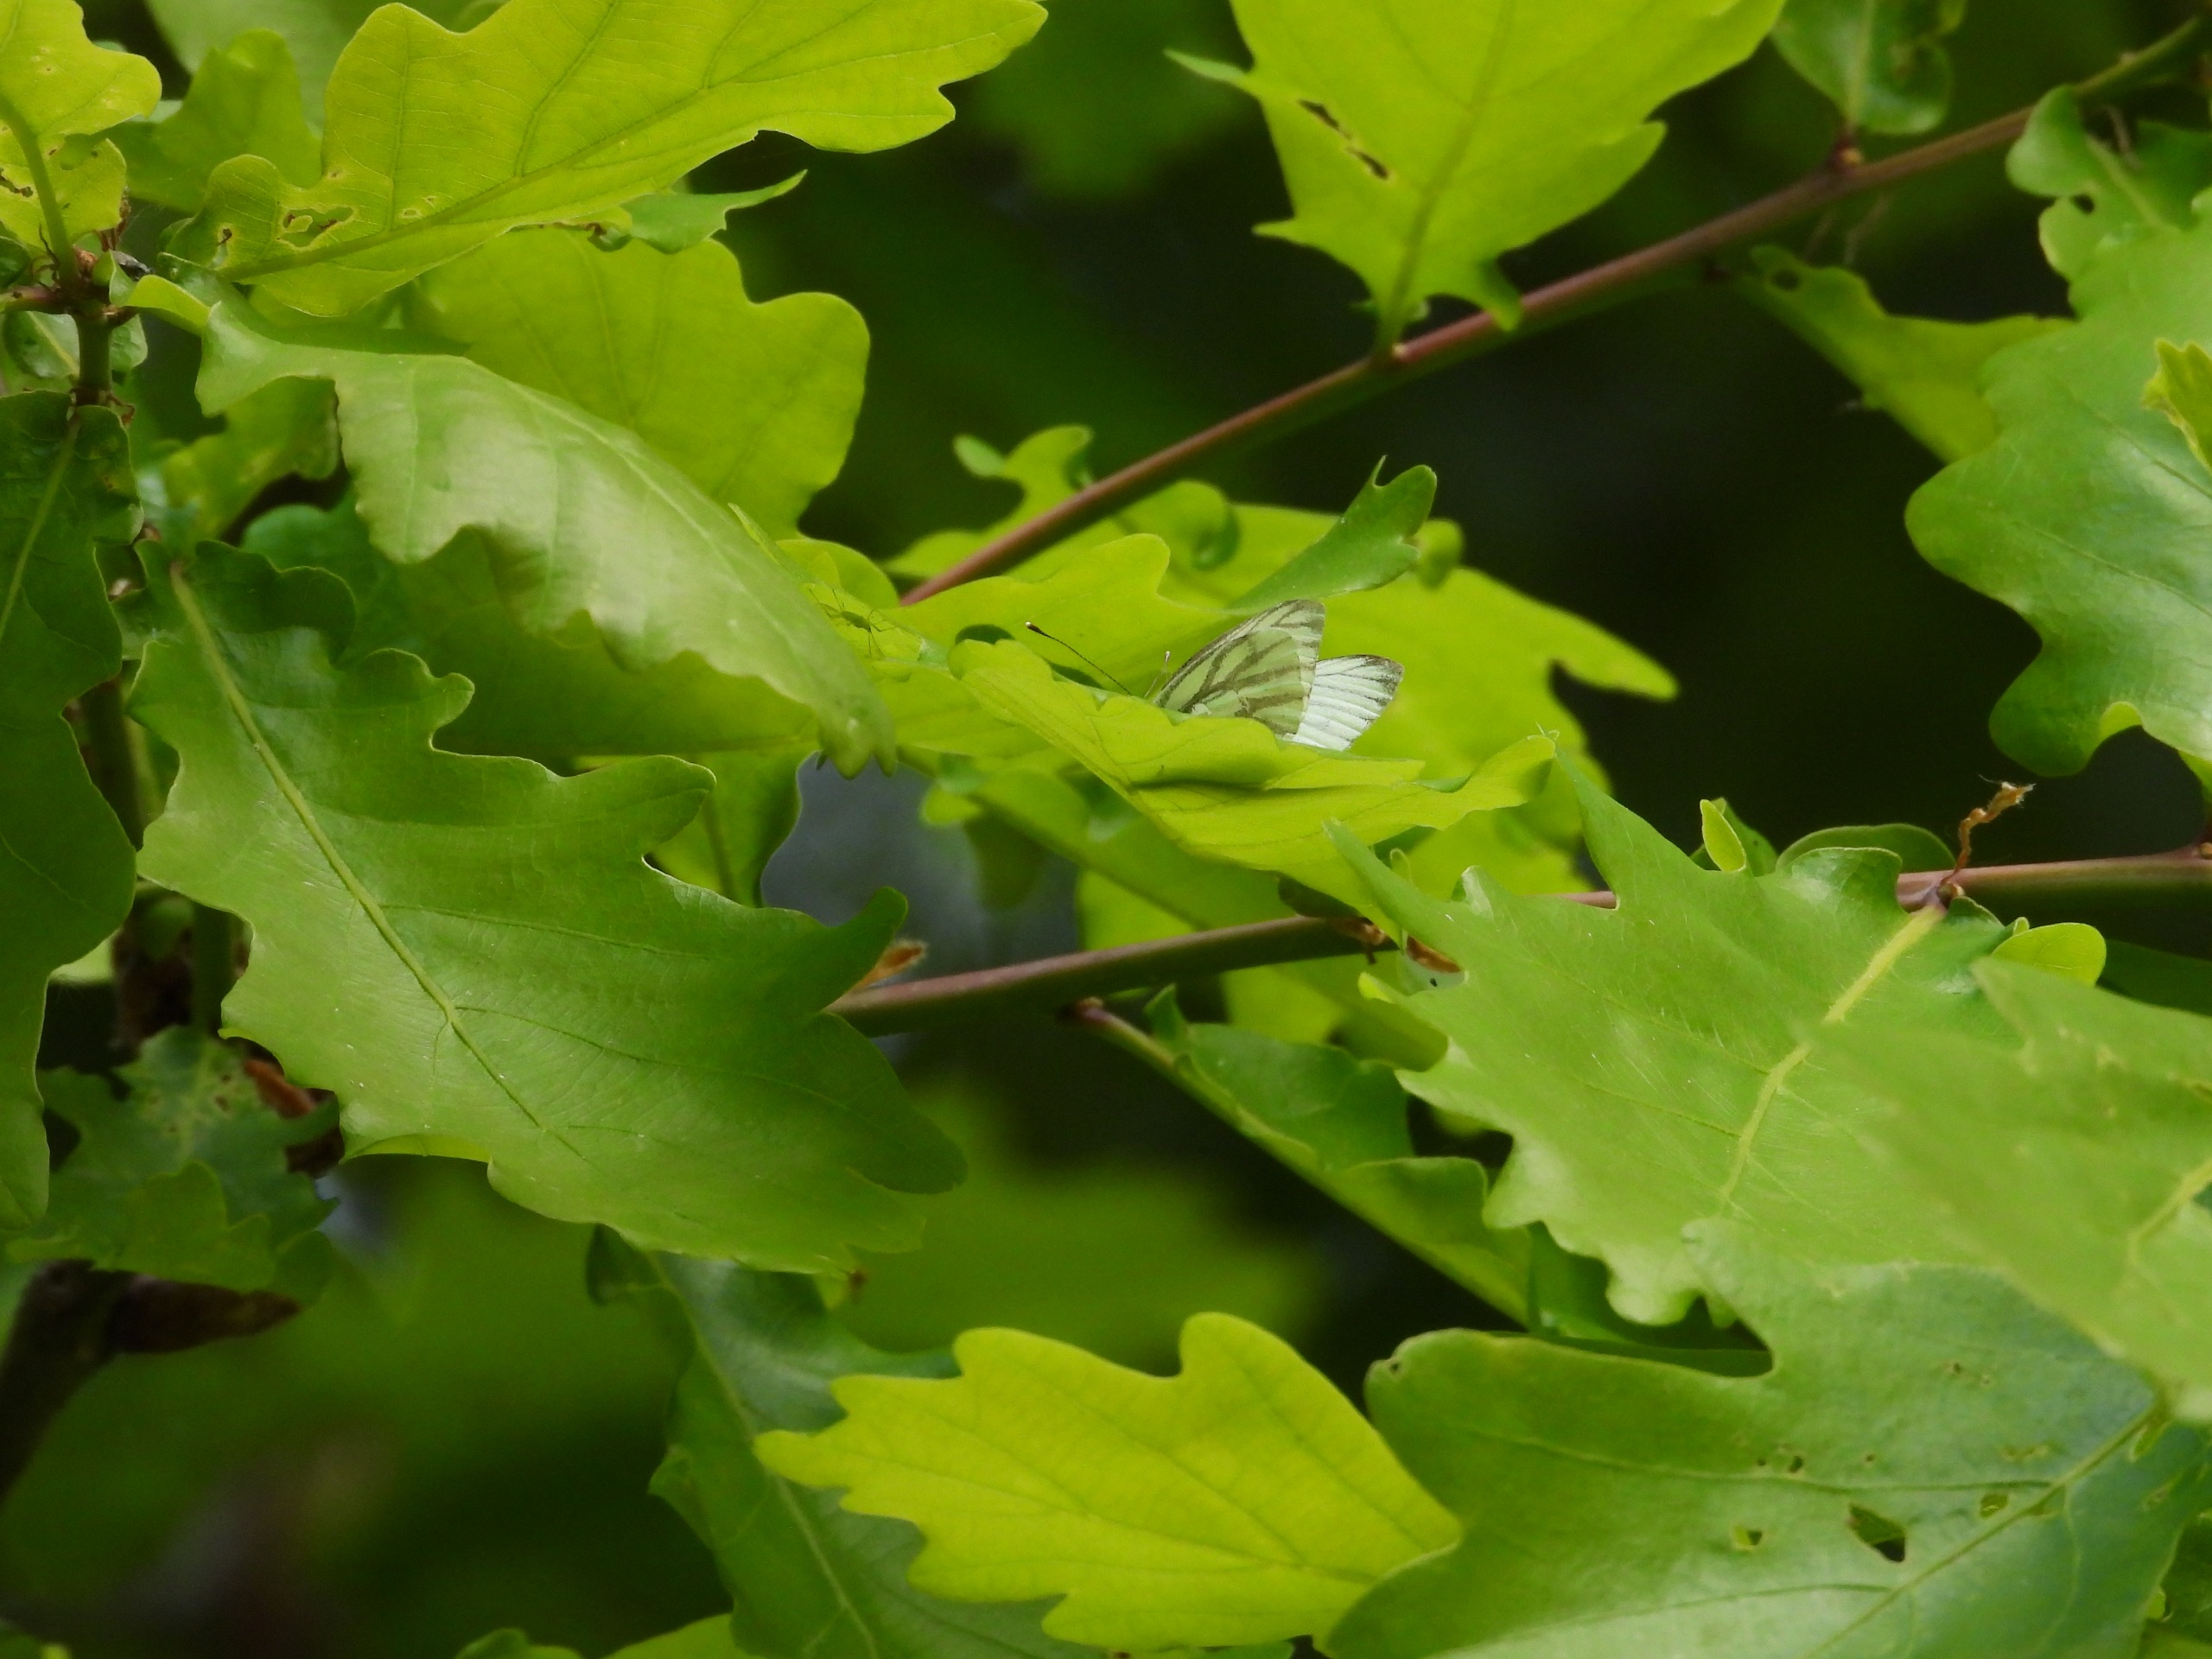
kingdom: Animalia
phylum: Arthropoda
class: Insecta
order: Lepidoptera
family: Pieridae
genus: Pieris
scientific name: Pieris napi
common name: Grønåret kålsommerfugl
